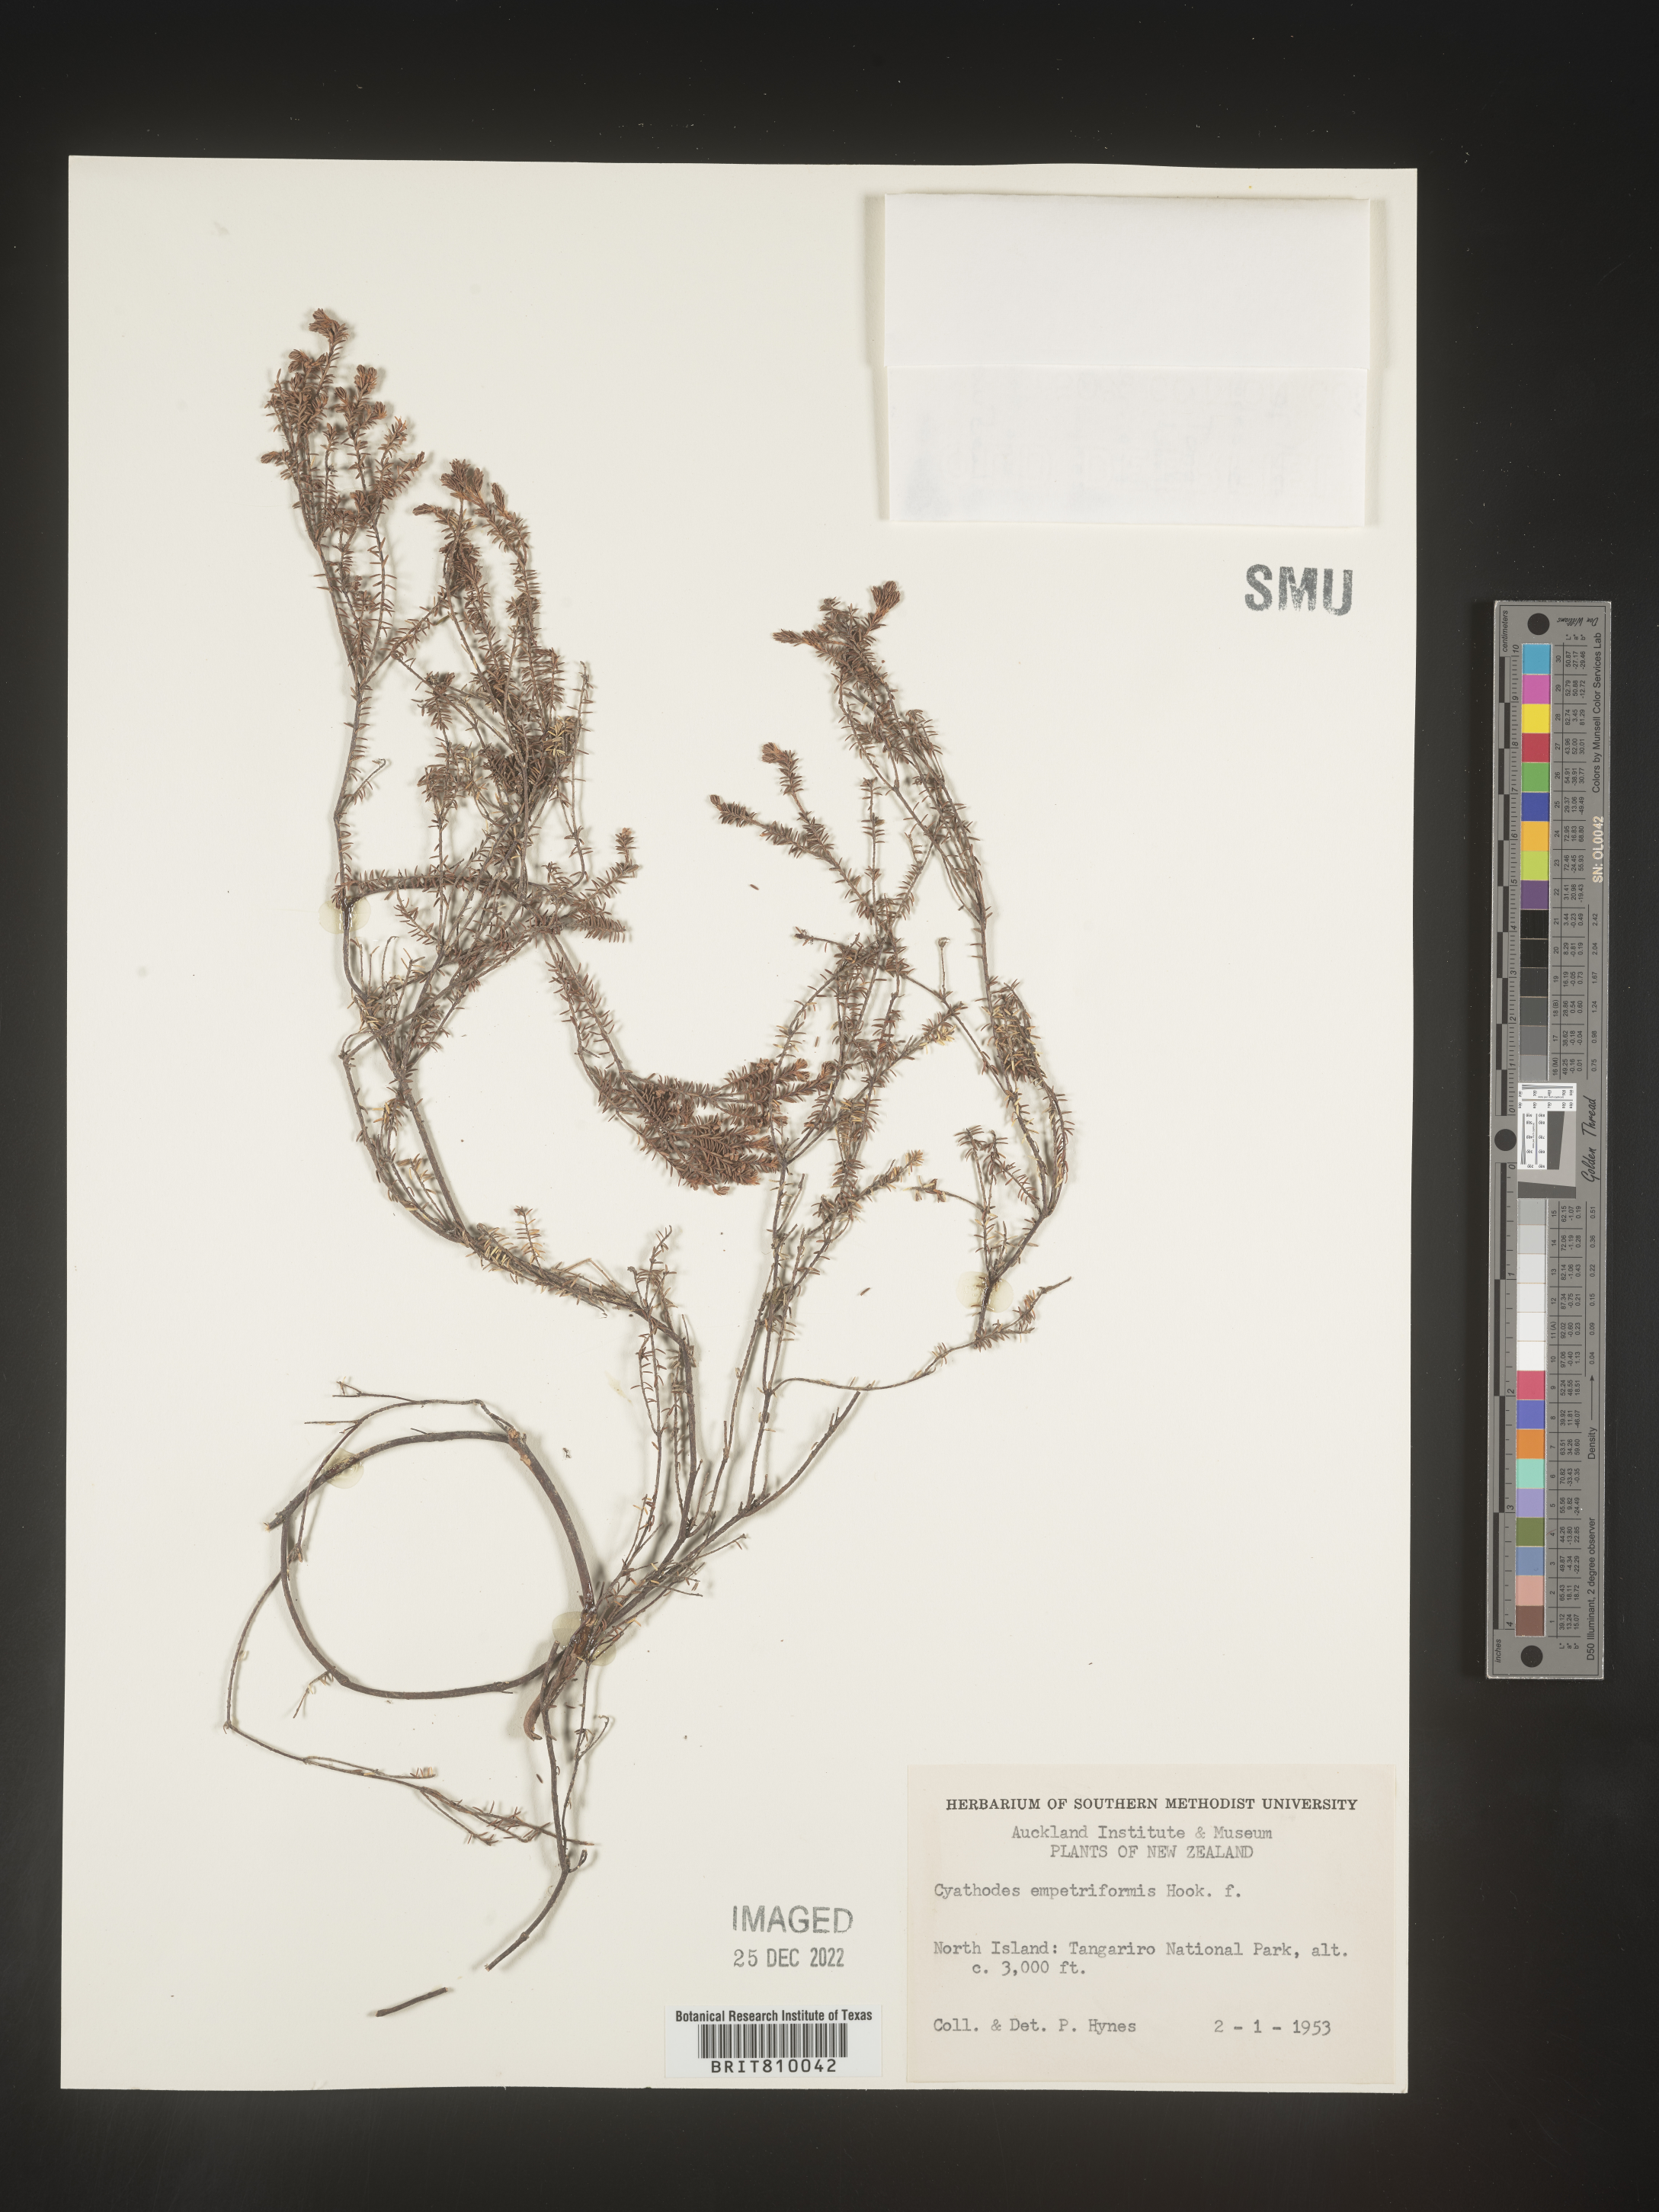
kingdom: Plantae
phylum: Tracheophyta
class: Magnoliopsida
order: Ericales
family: Ericaceae
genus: Cyathodes
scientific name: Cyathodes
